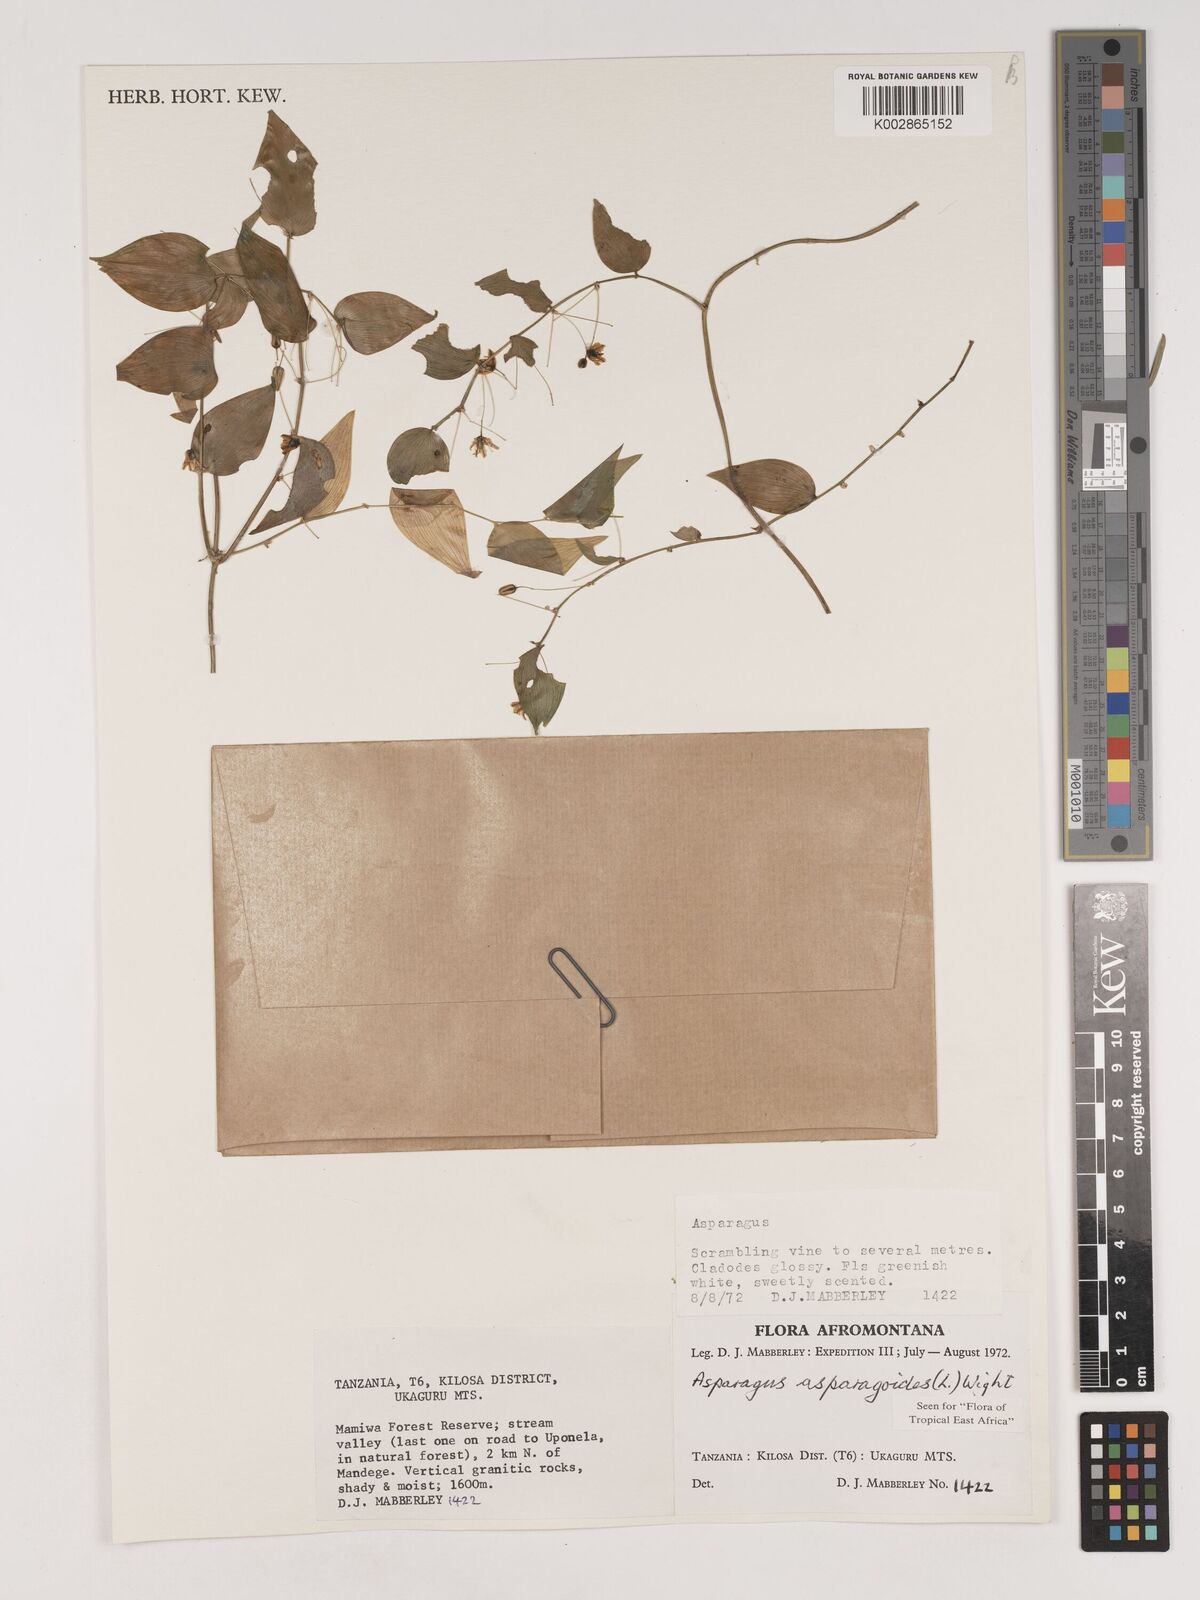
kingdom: Plantae
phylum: Tracheophyta
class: Liliopsida
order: Asparagales
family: Asparagaceae
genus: Asparagus
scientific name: Asparagus asparagoides
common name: African asparagus fern
